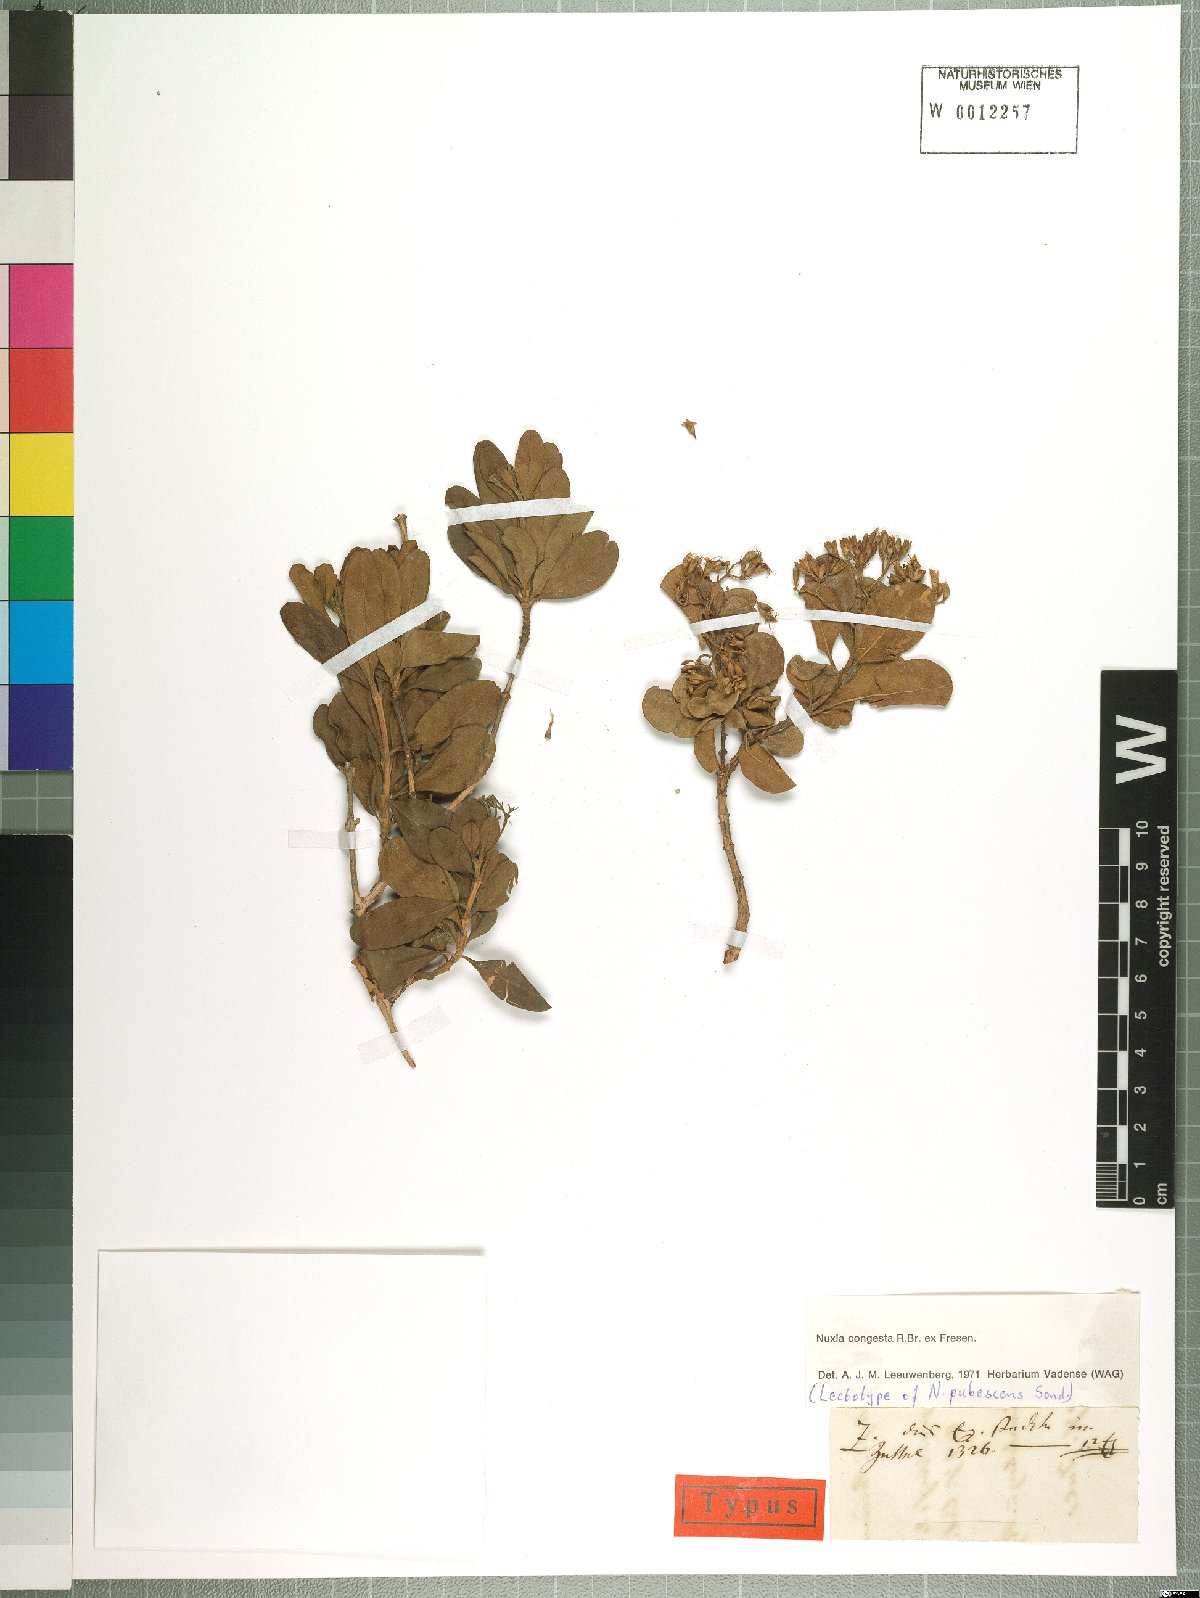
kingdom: Plantae
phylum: Tracheophyta
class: Magnoliopsida
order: Lamiales
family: Stilbaceae
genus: Nuxia
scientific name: Nuxia congesta
